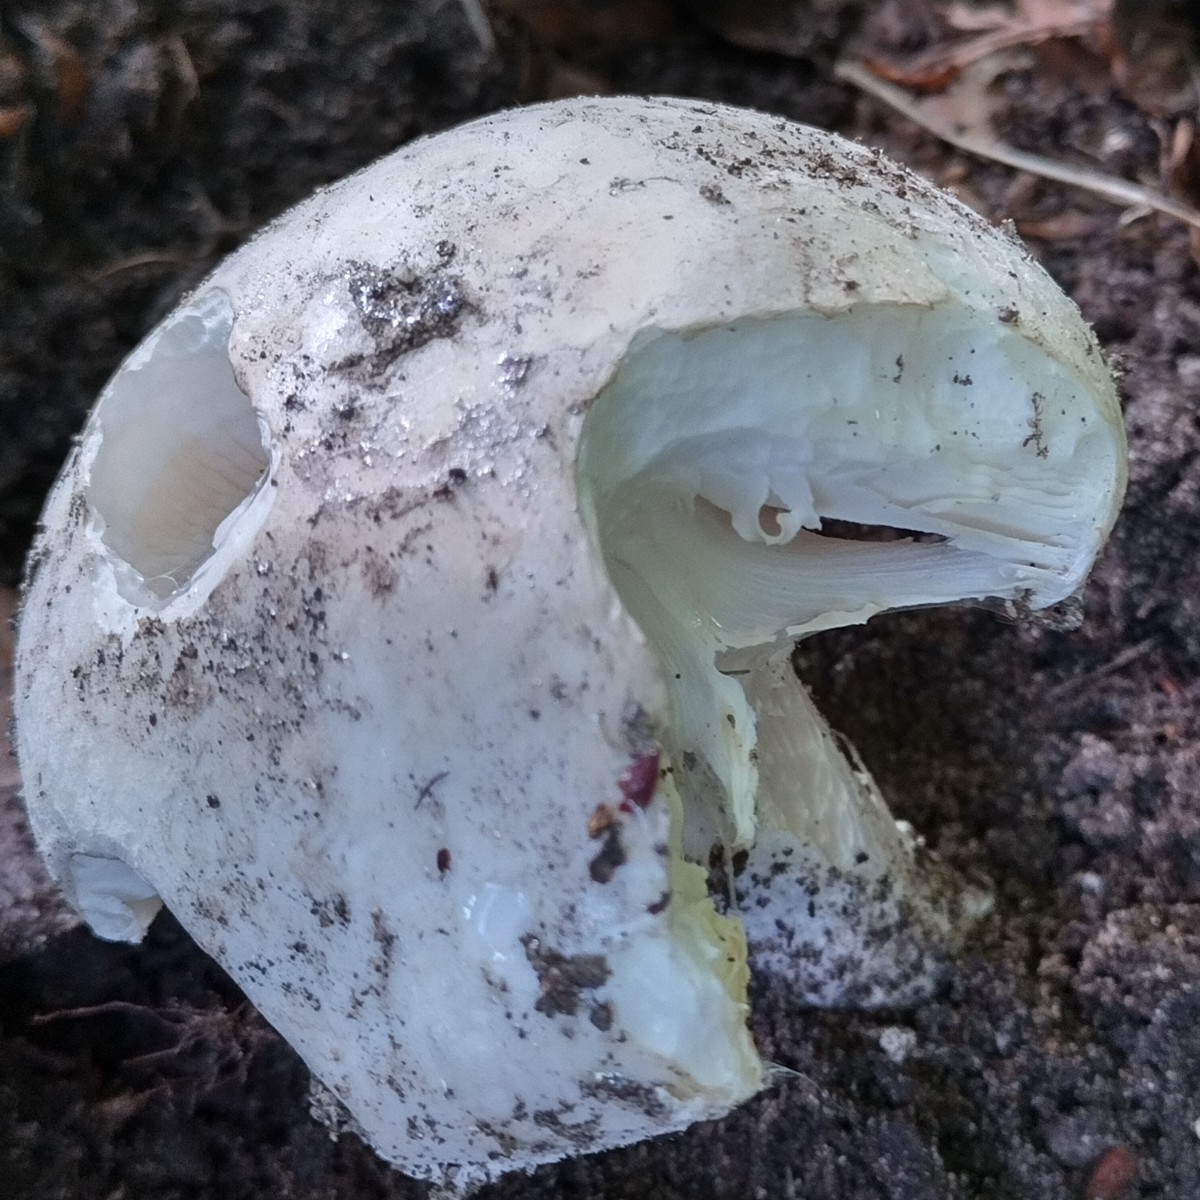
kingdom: Fungi
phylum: Basidiomycota
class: Agaricomycetes
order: Agaricales
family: Amanitaceae
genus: Amanita
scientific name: Amanita
